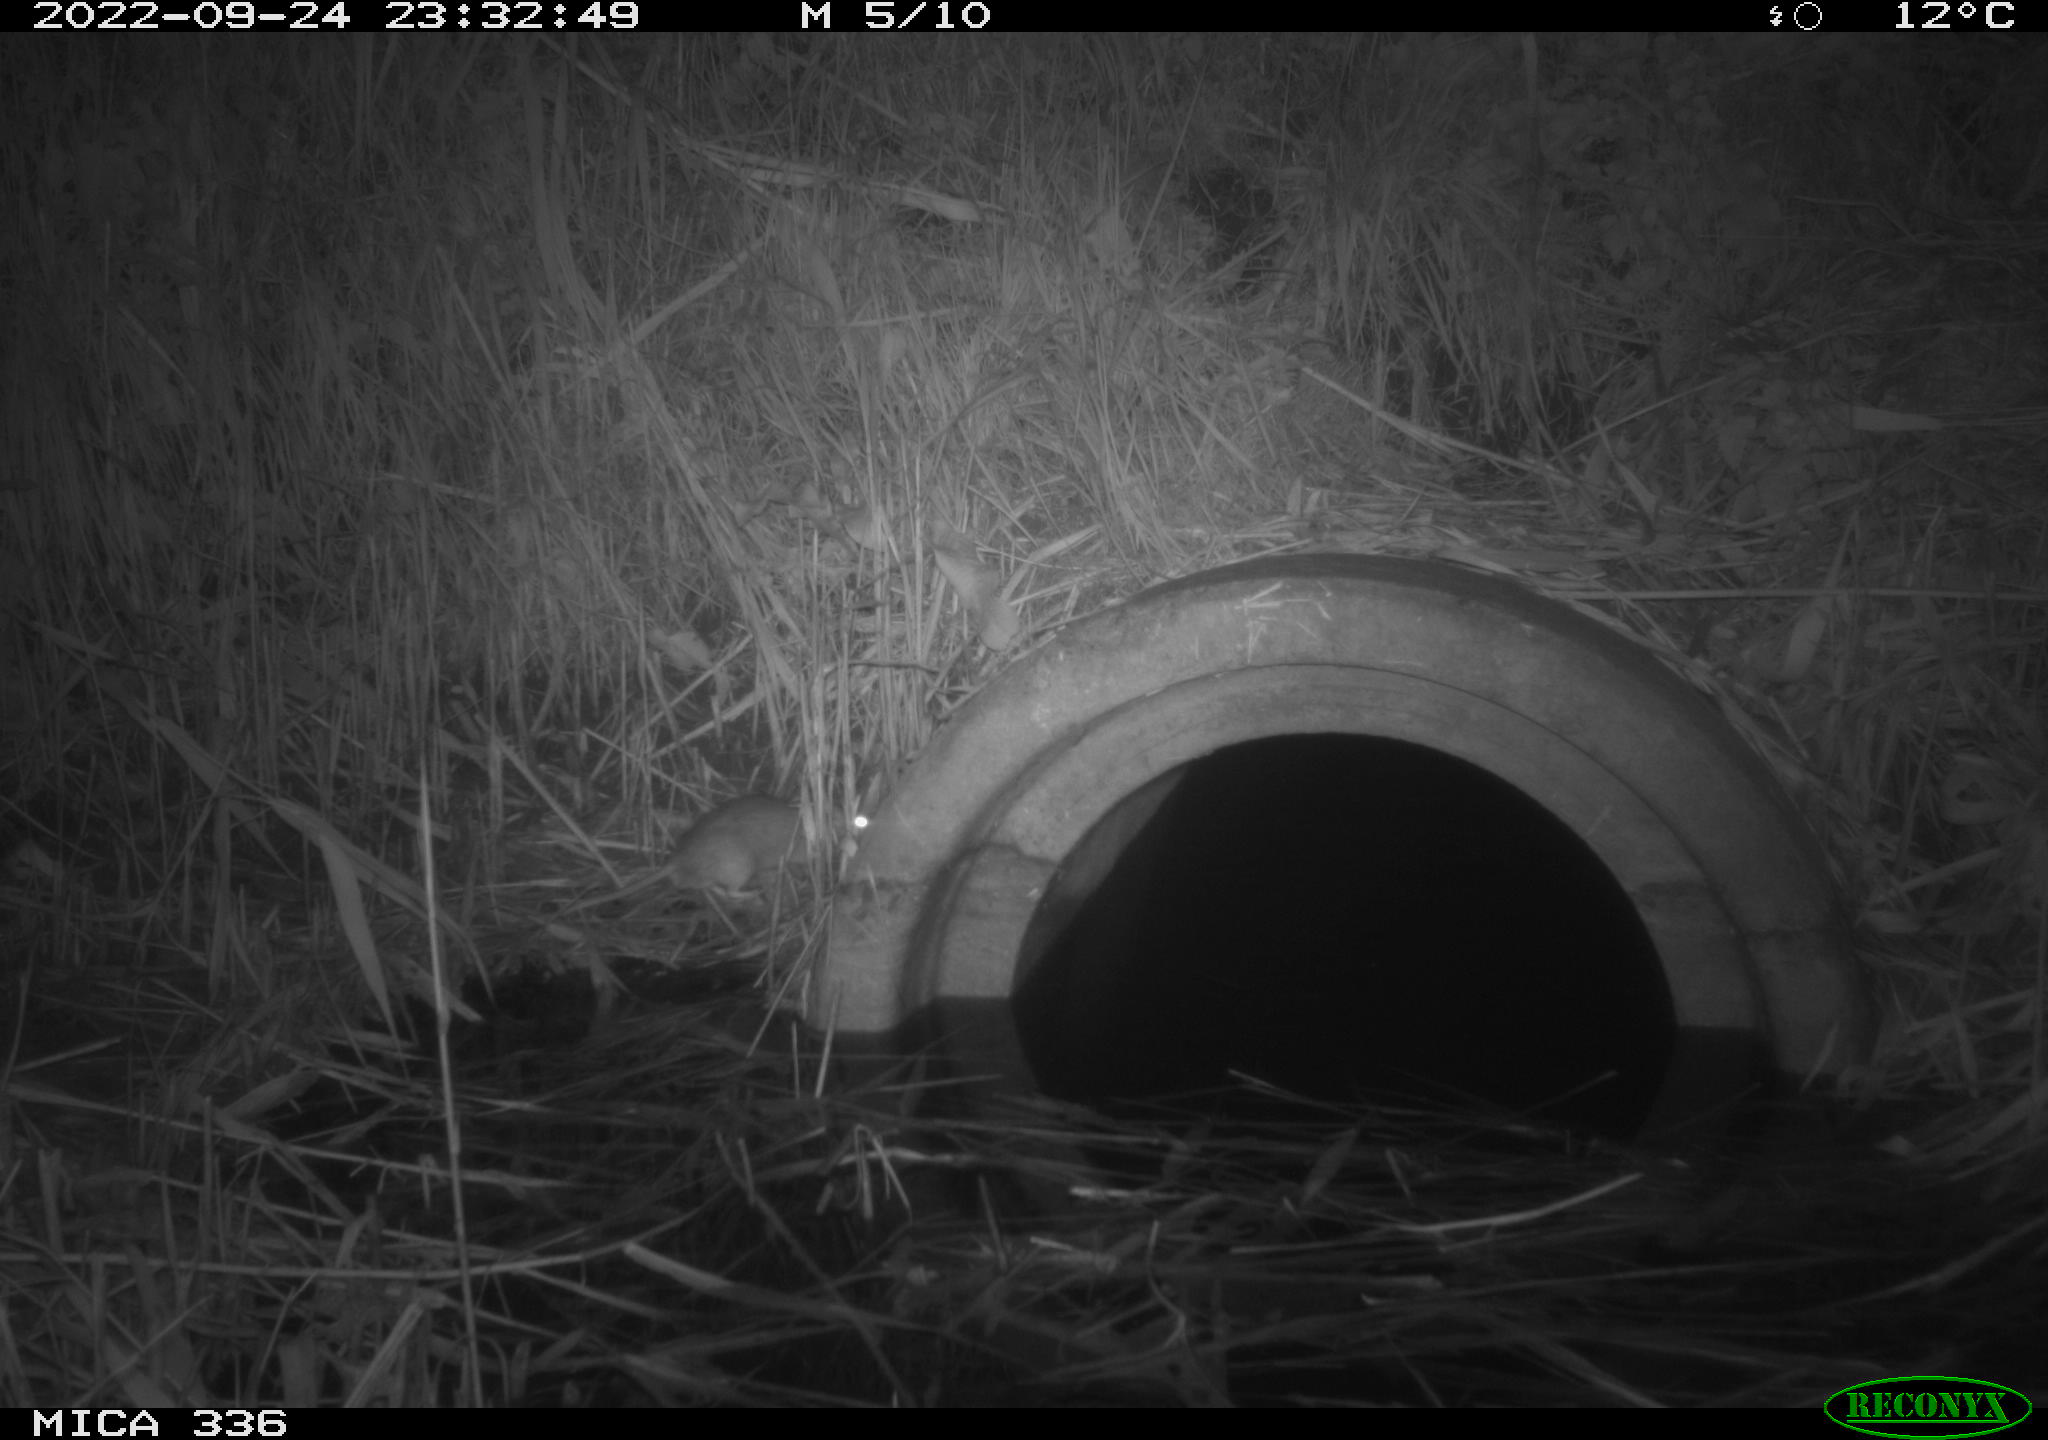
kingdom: Animalia
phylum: Chordata
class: Mammalia
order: Rodentia
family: Muridae
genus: Rattus
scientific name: Rattus norvegicus
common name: Brown rat
